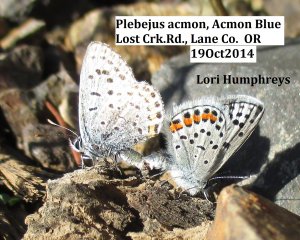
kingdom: Animalia
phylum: Arthropoda
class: Insecta
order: Lepidoptera
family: Lycaenidae
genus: Plebejus
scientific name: Plebejus acmon
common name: Acmon Blue
